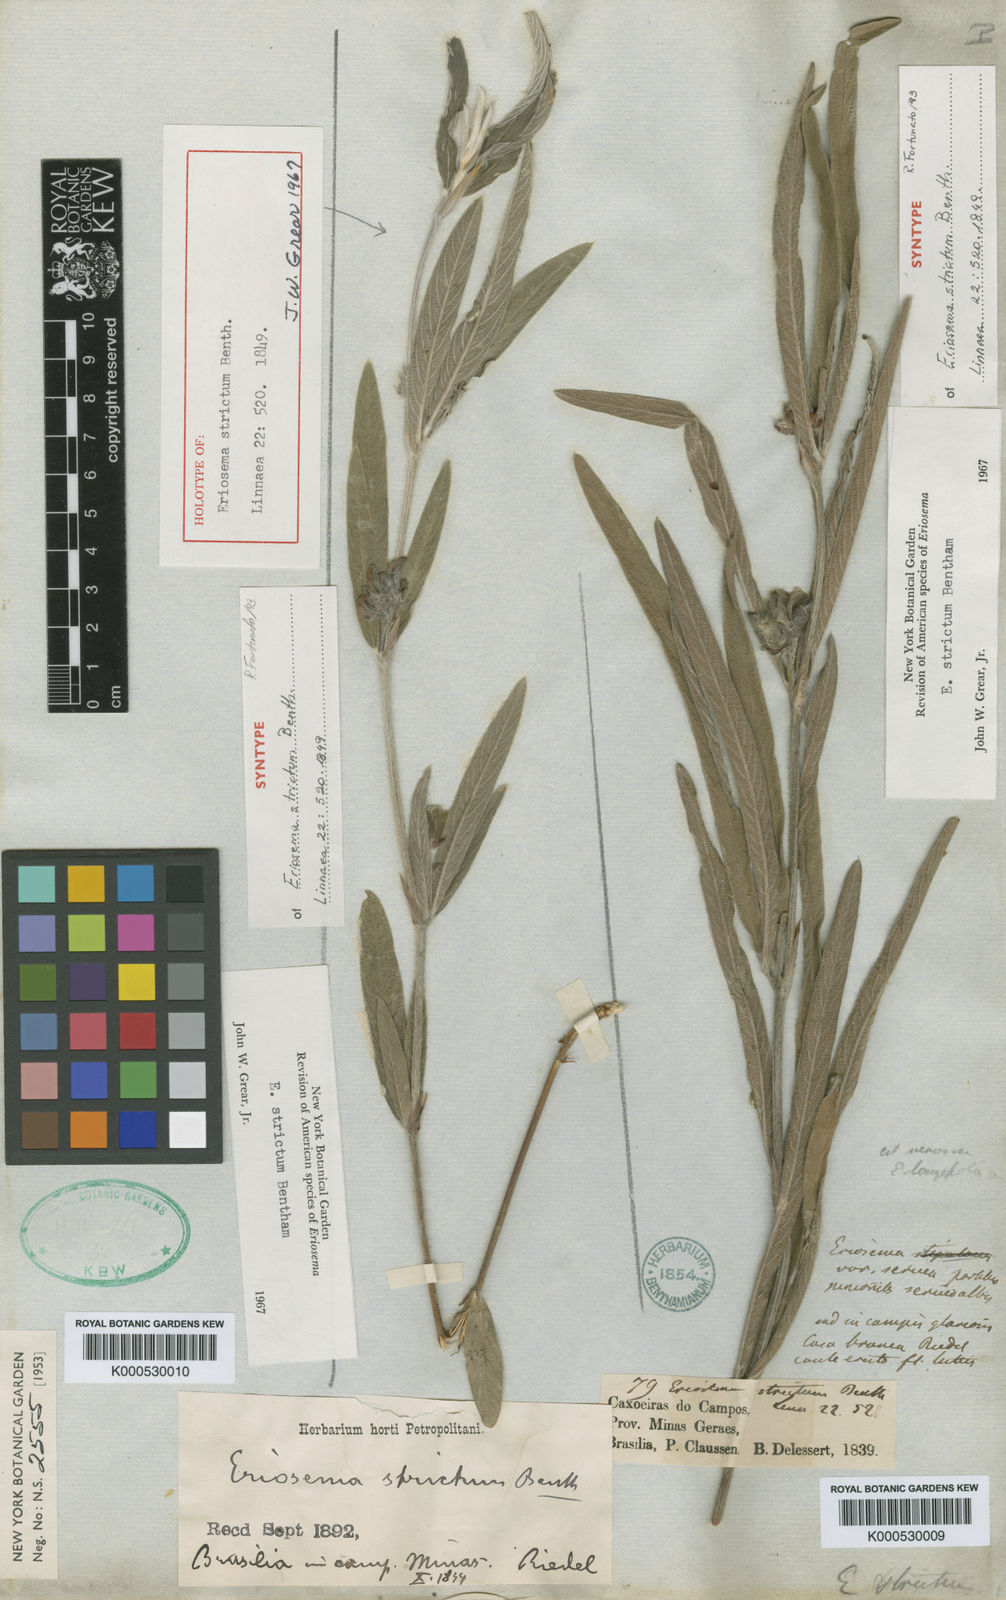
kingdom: Plantae
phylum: Tracheophyta
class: Magnoliopsida
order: Fabales
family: Fabaceae
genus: Eriosema
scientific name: Eriosema strictum
